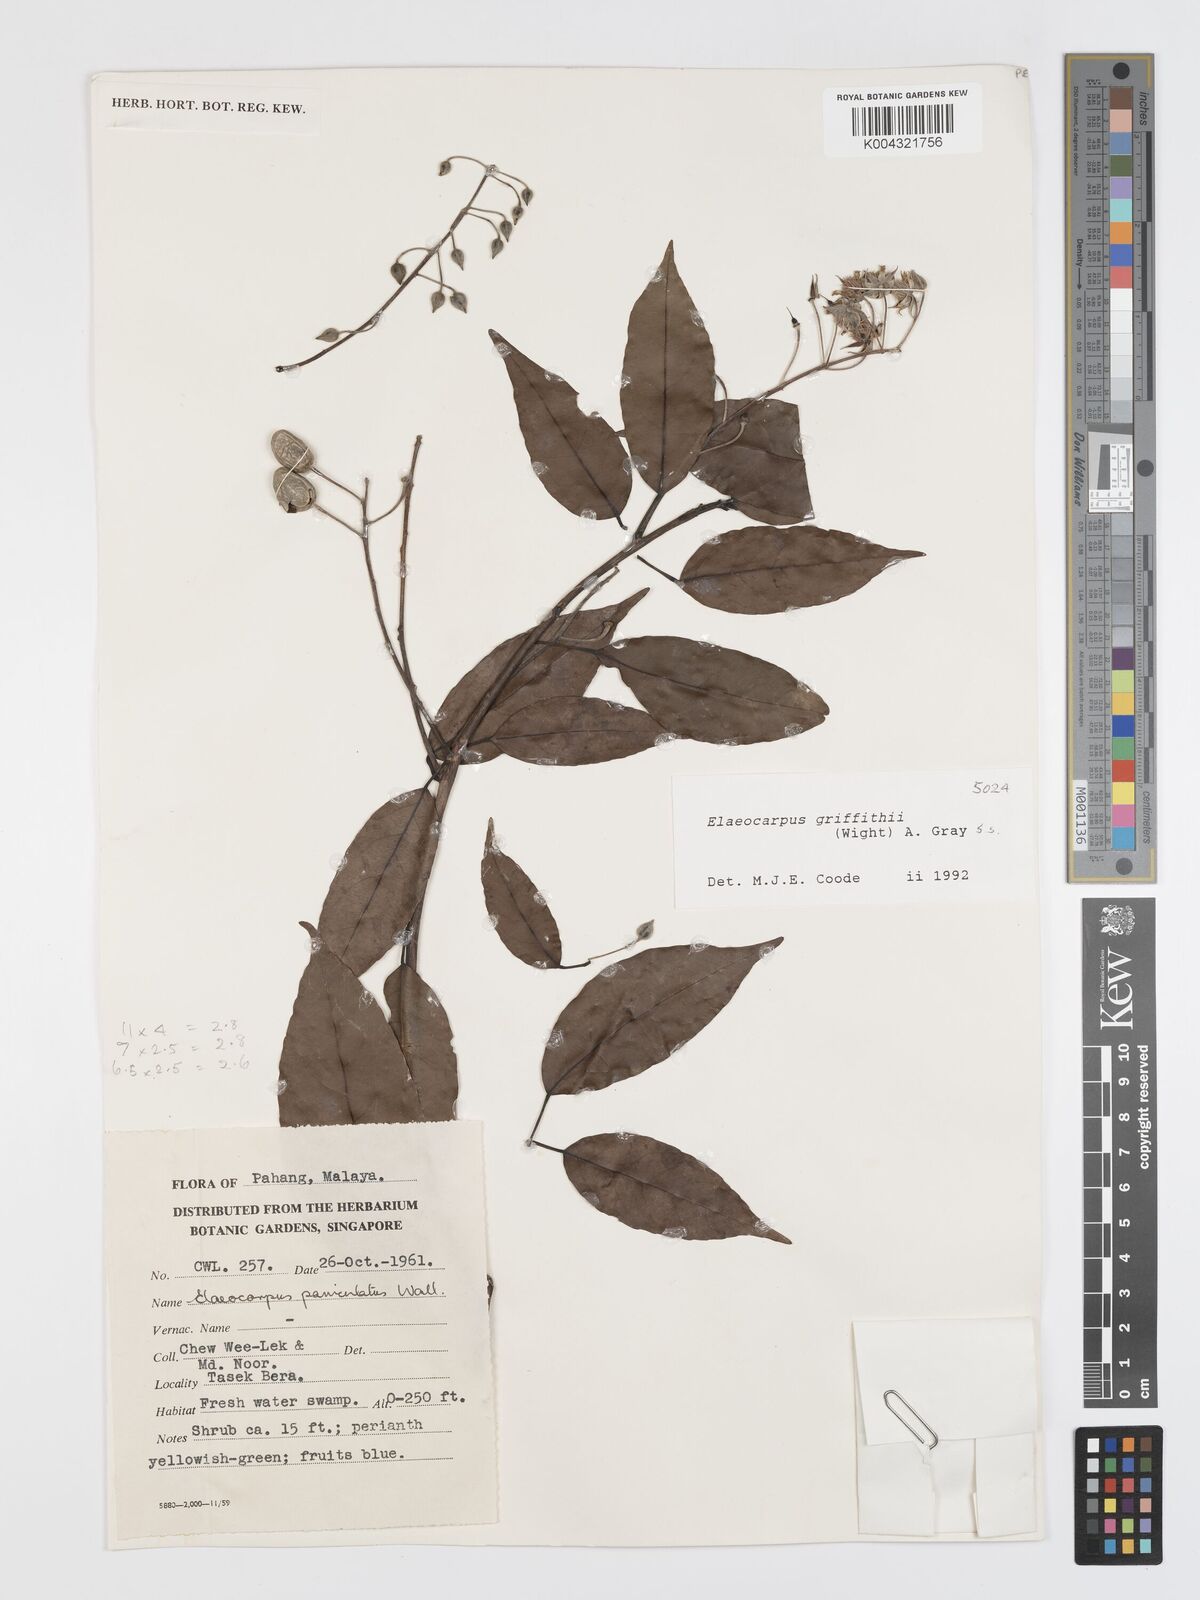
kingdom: Plantae
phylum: Tracheophyta
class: Magnoliopsida
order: Oxalidales
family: Elaeocarpaceae
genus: Elaeocarpus
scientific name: Elaeocarpus griffithii
